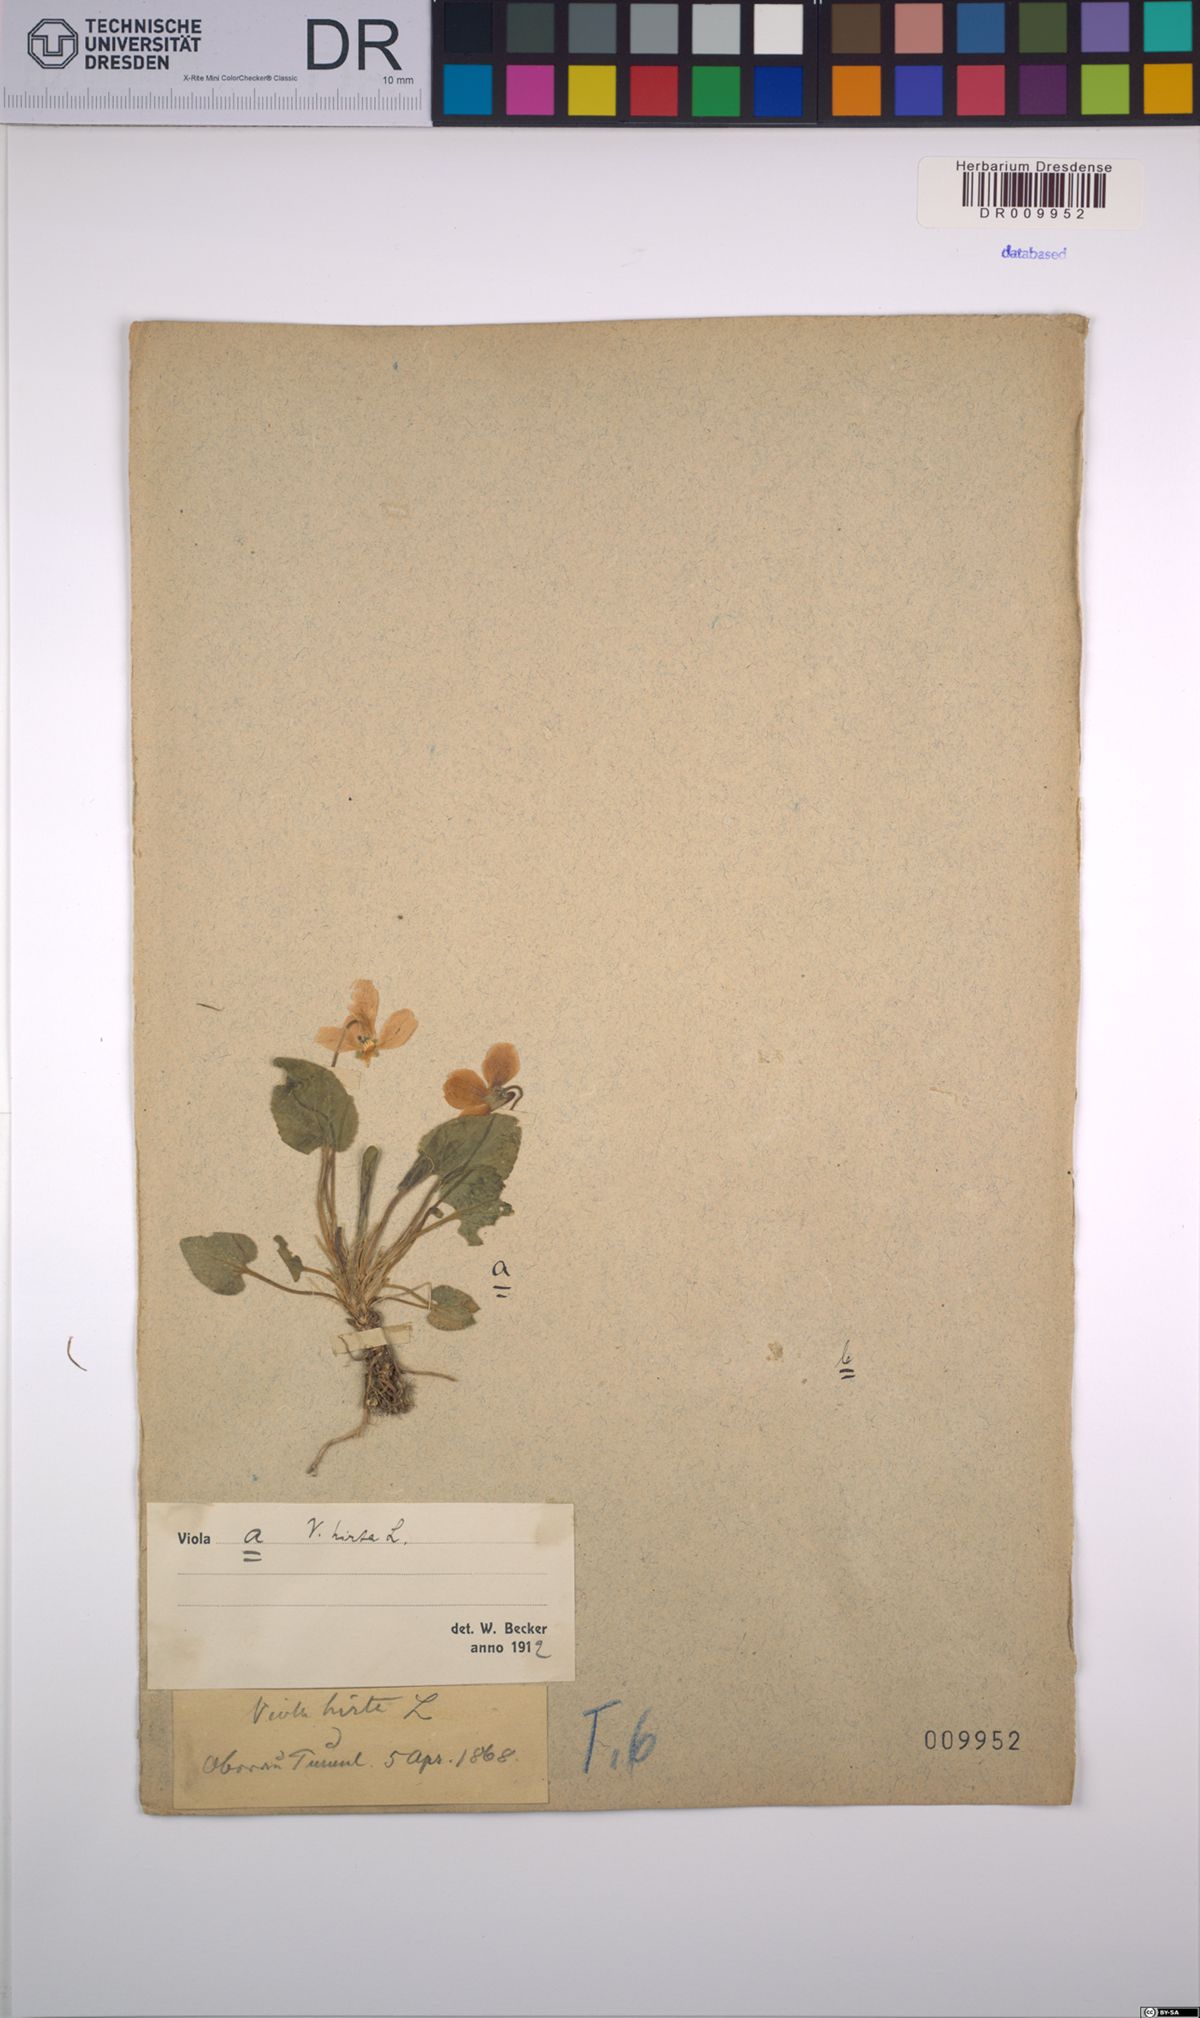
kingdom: Plantae
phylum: Tracheophyta
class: Magnoliopsida
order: Malpighiales
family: Violaceae
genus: Viola
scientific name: Viola hirta
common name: Hairy violet
